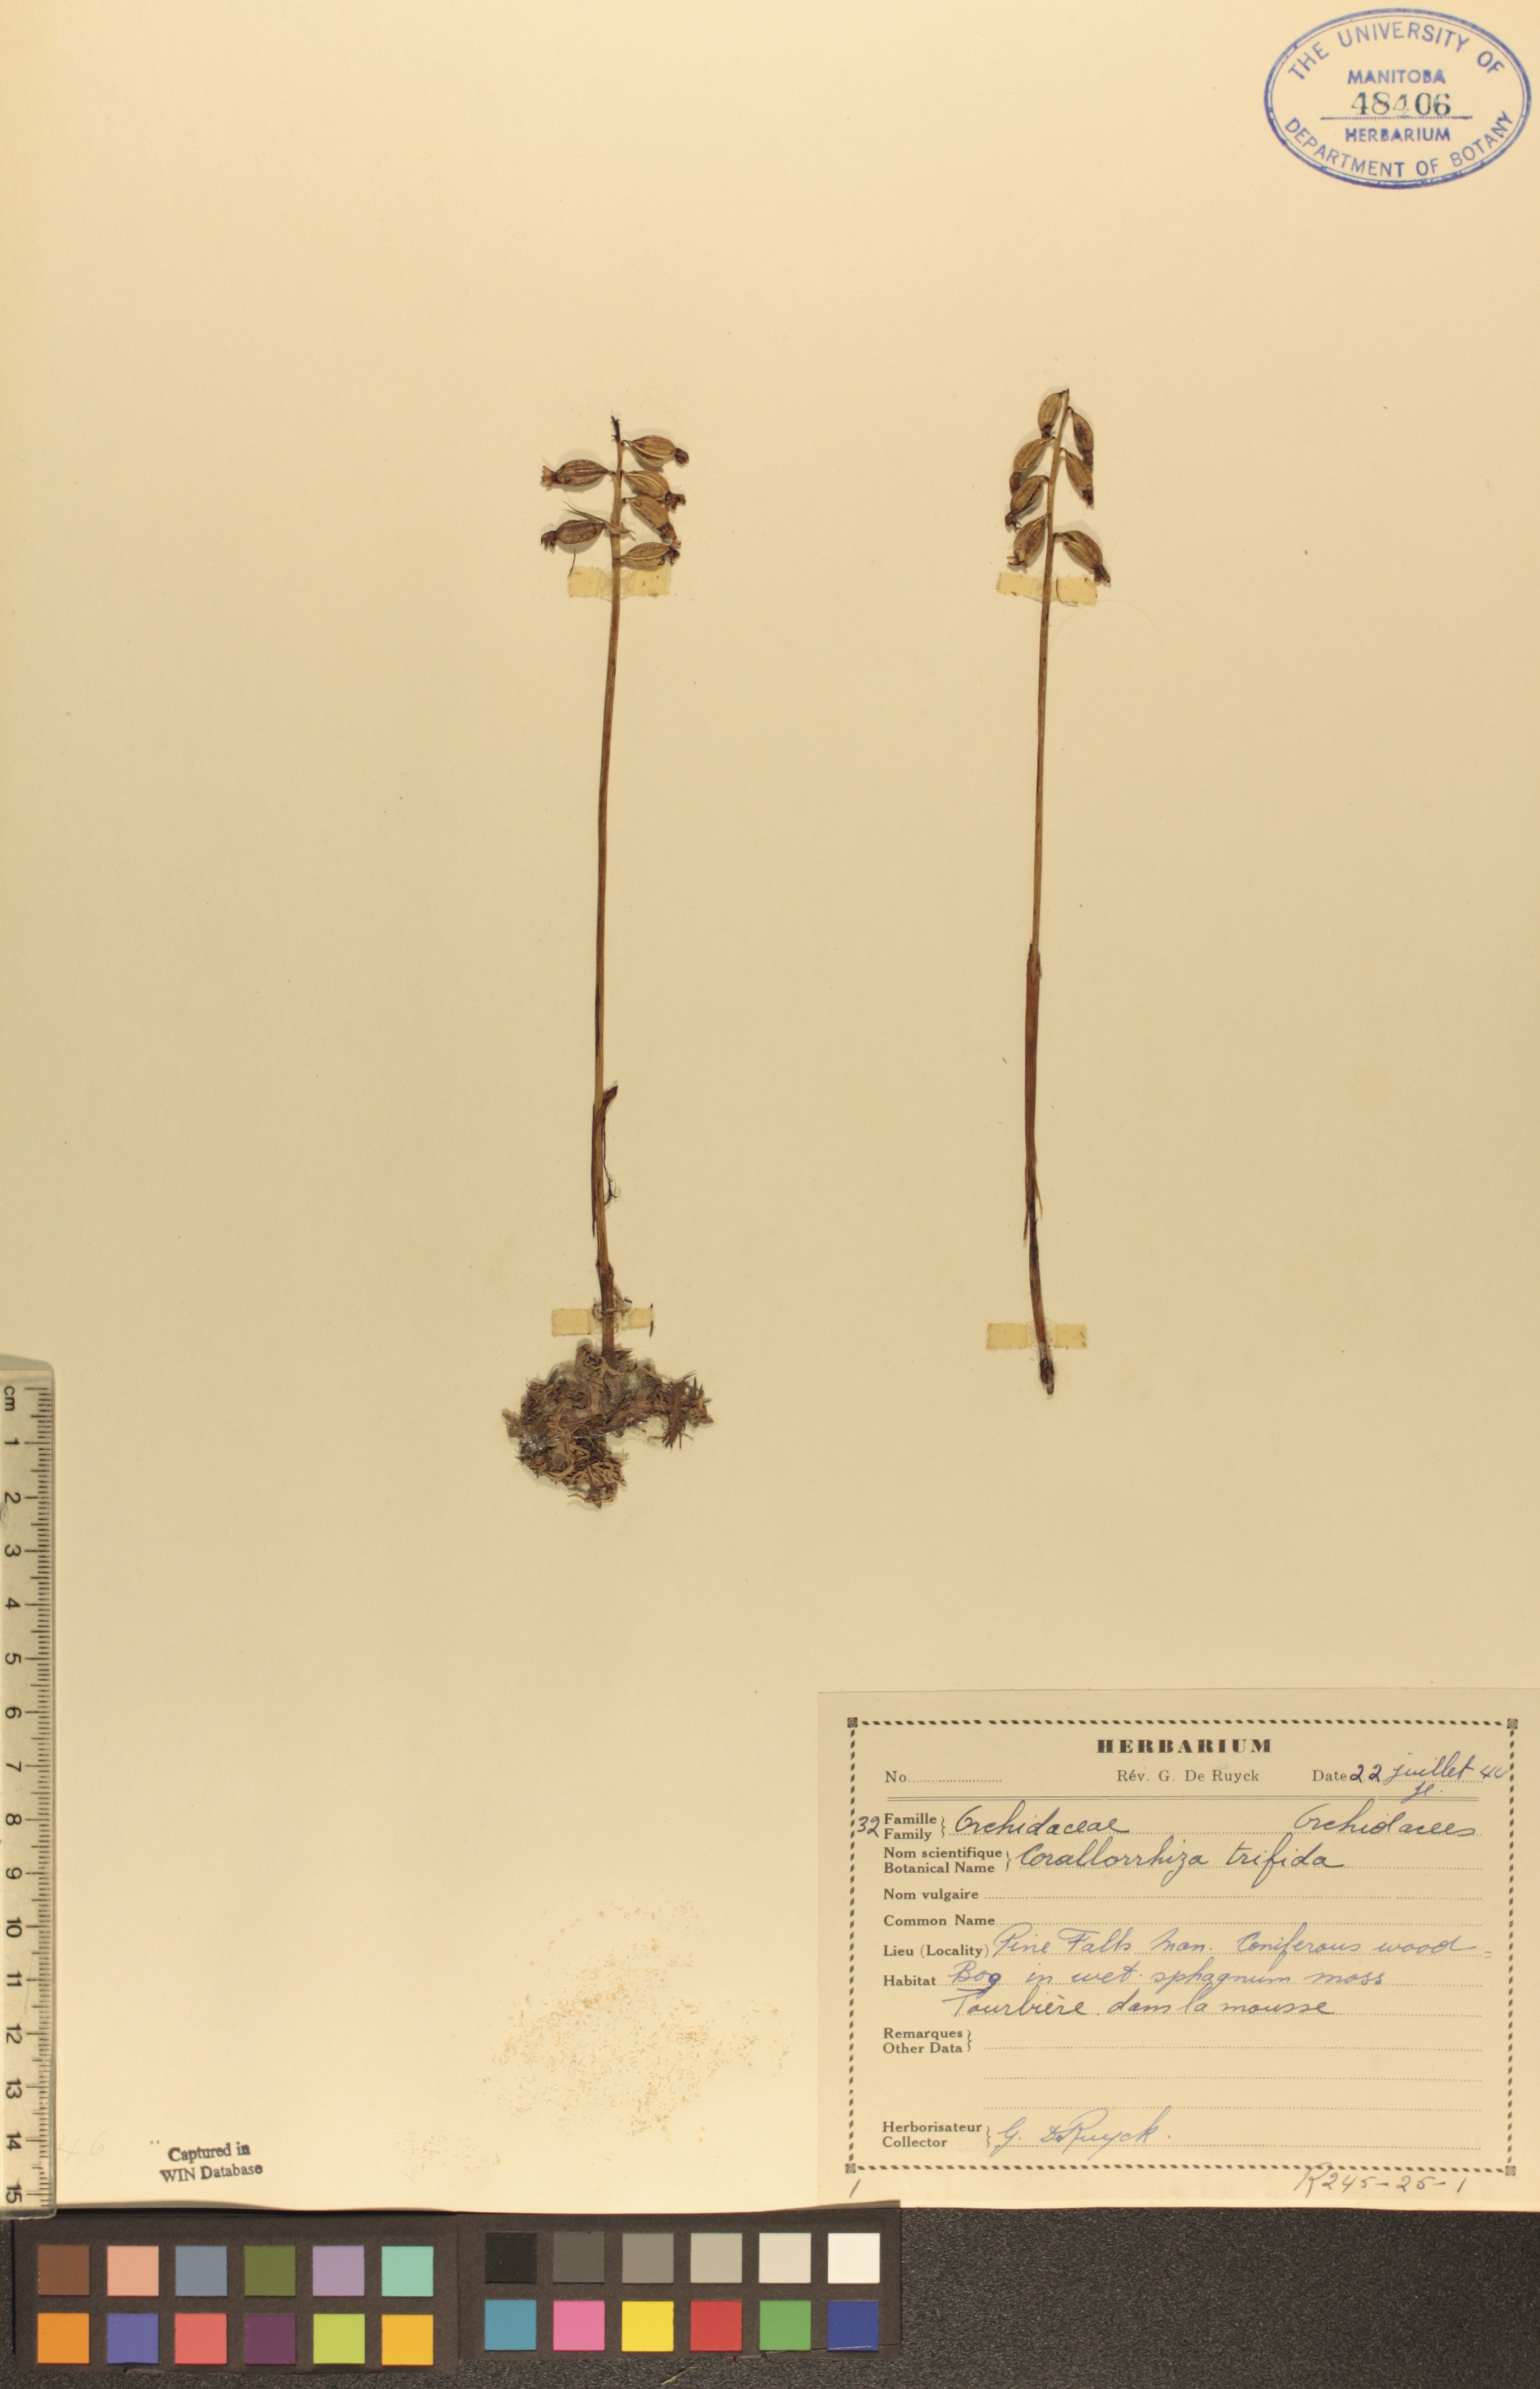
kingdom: Plantae
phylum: Tracheophyta
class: Liliopsida
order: Asparagales
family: Orchidaceae
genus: Corallorhiza
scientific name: Corallorhiza trifida
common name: Yellow coralroot
